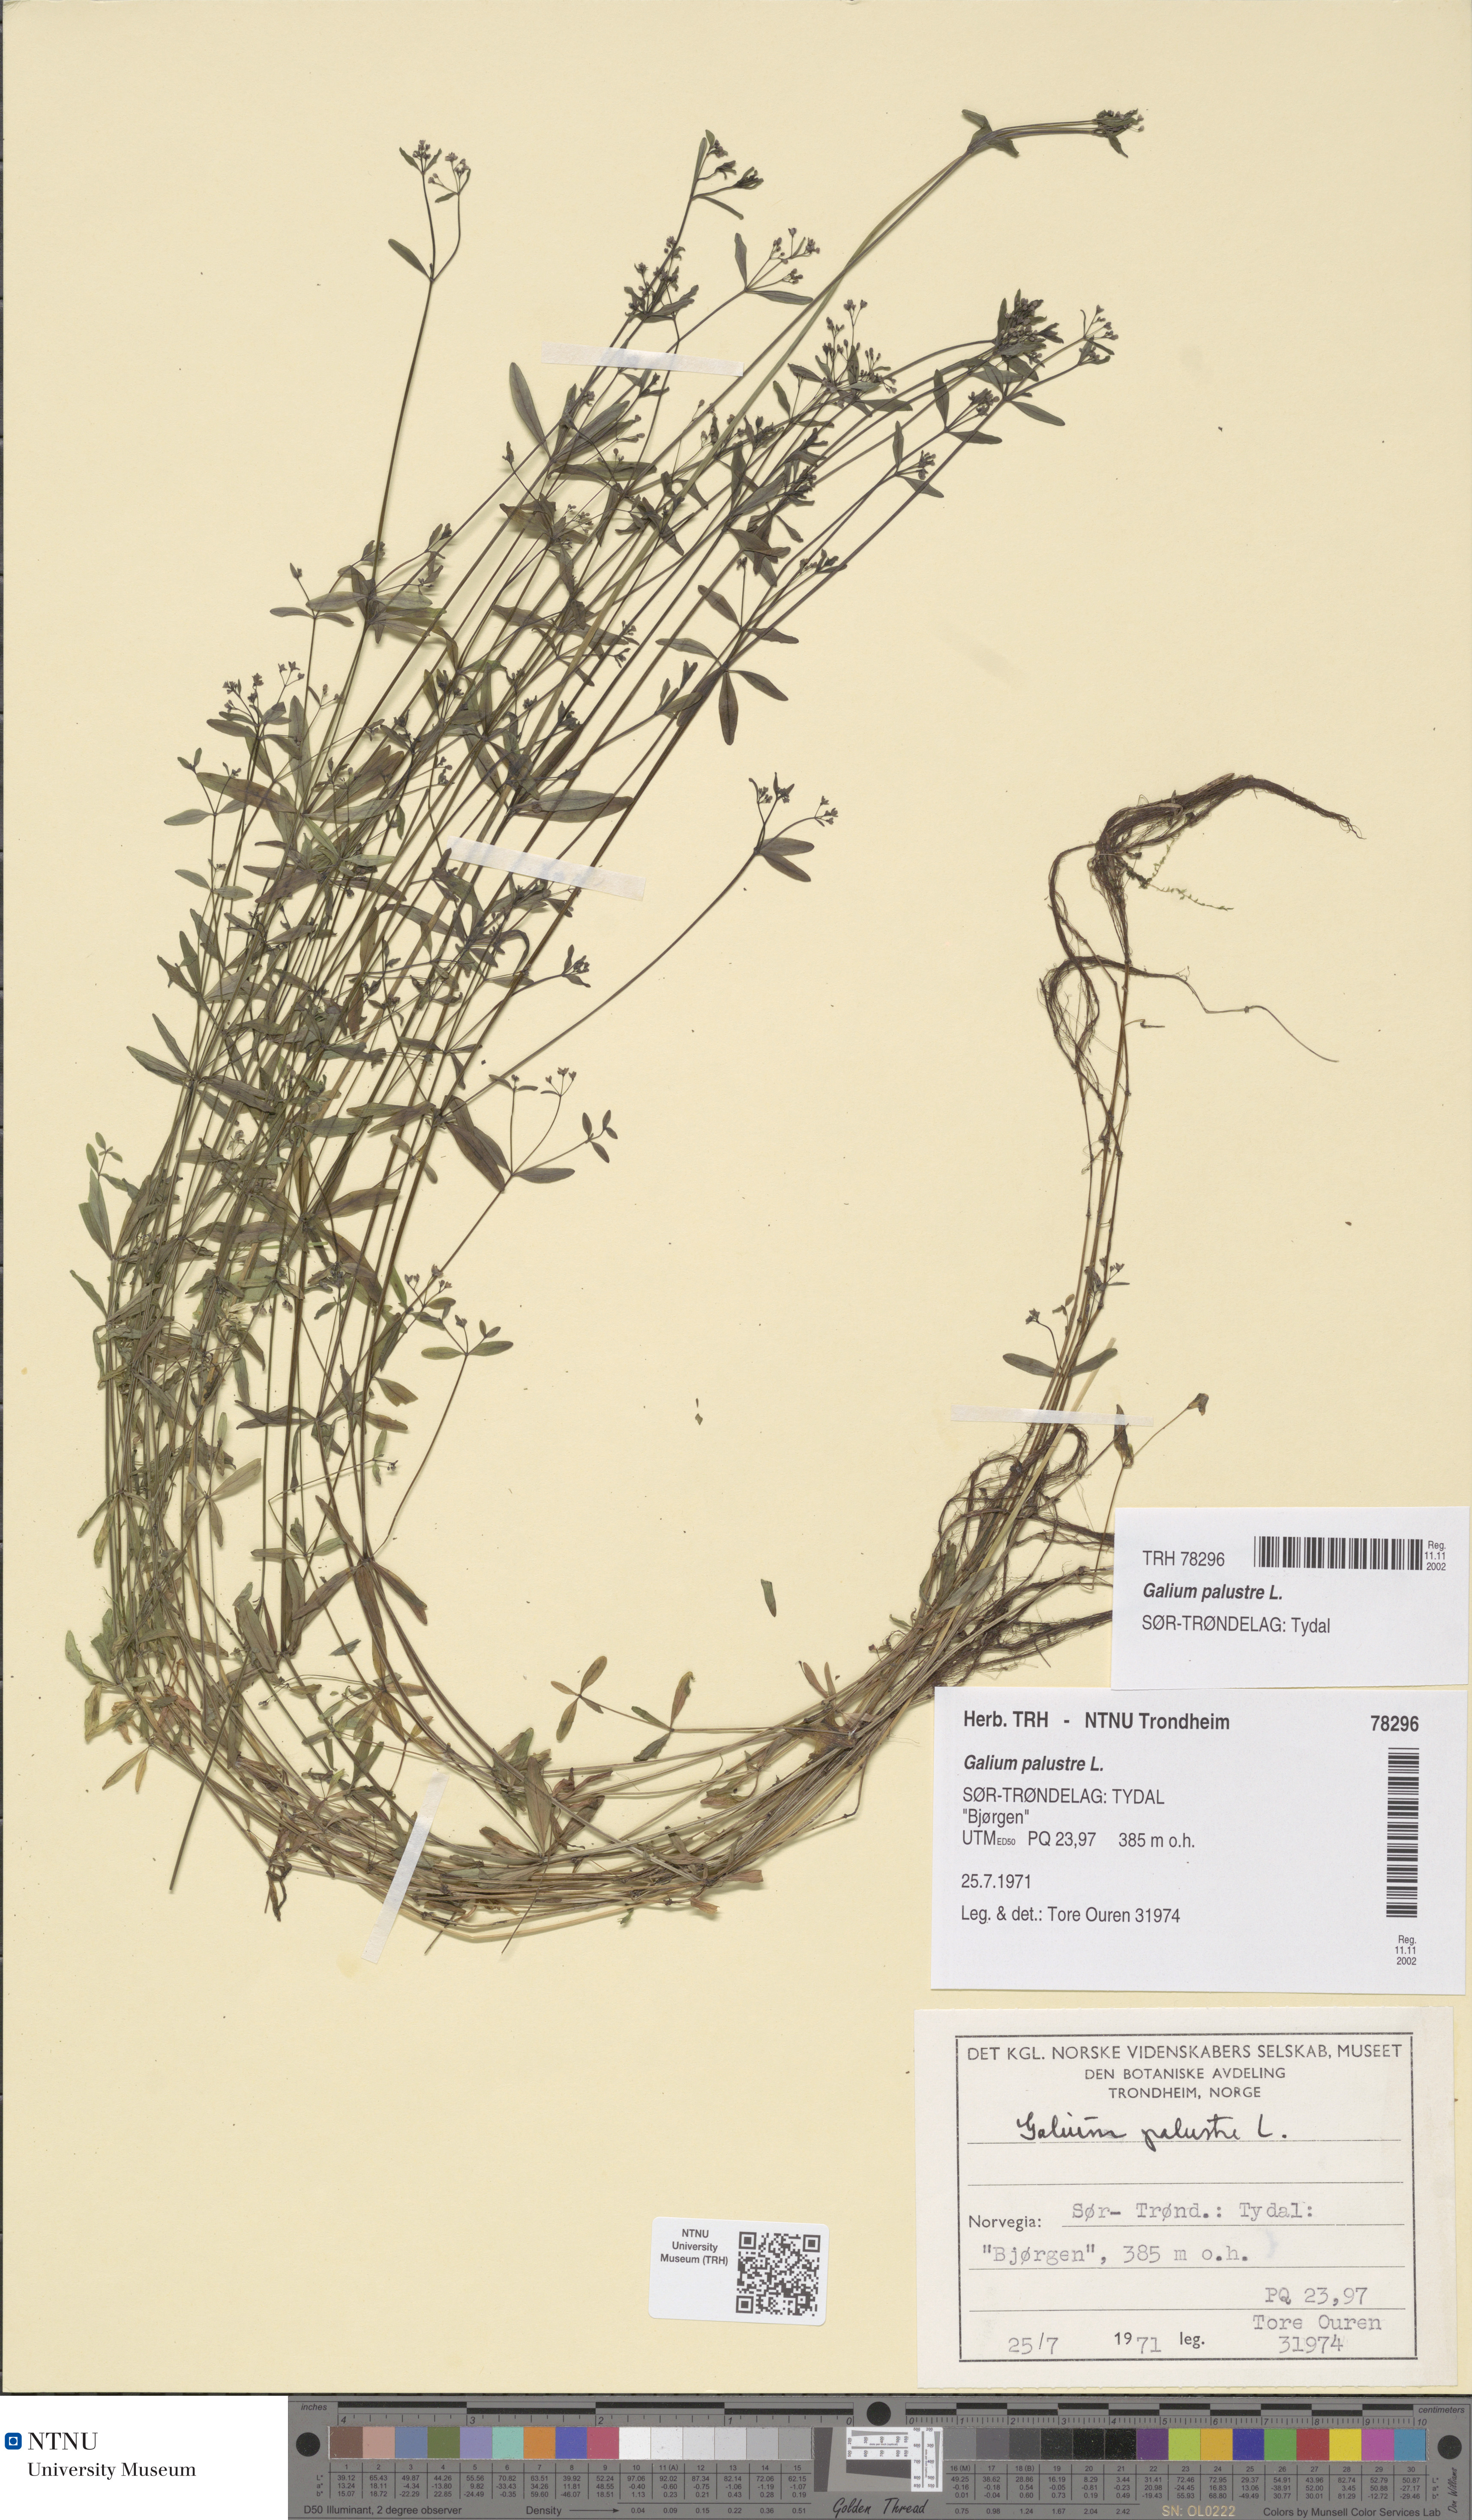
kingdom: Plantae
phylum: Tracheophyta
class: Magnoliopsida
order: Gentianales
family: Rubiaceae
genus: Galium
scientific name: Galium palustre
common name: Common marsh-bedstraw
